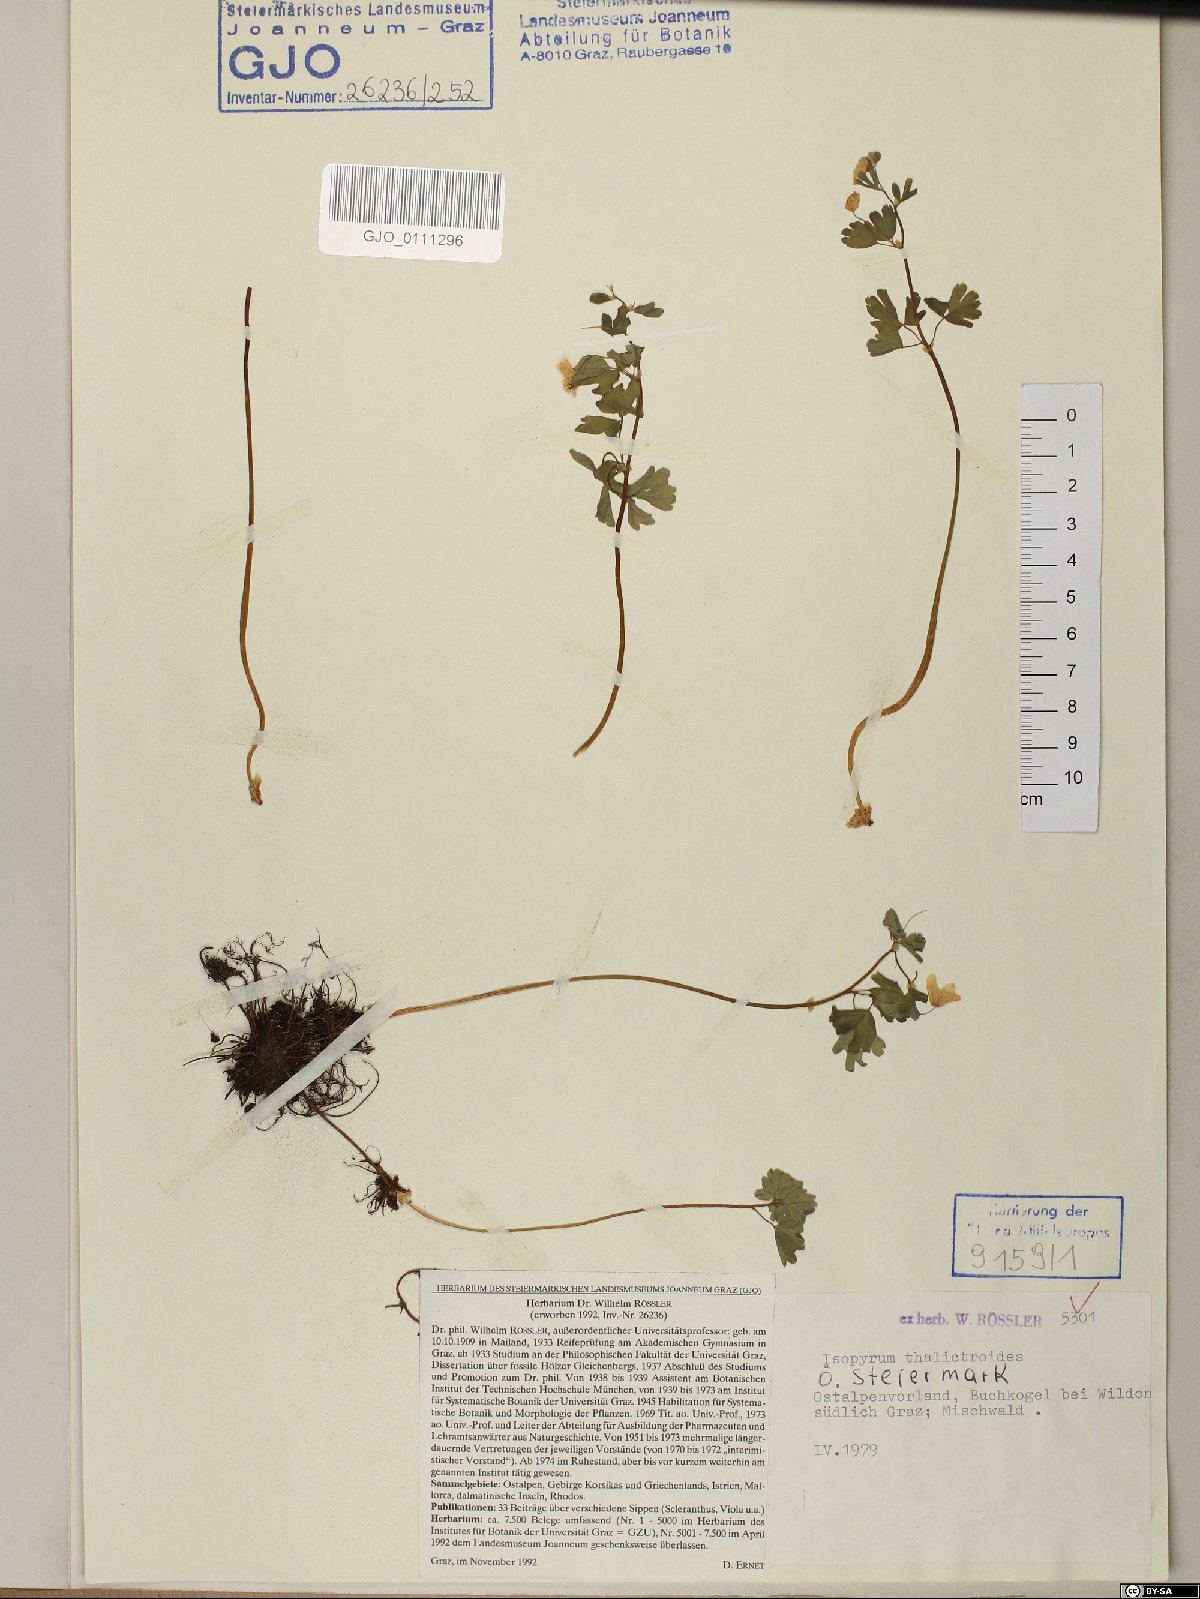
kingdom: Plantae
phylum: Tracheophyta
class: Magnoliopsida
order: Ranunculales
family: Ranunculaceae
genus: Isopyrum
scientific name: Isopyrum thalictroides
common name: Isopyrum
